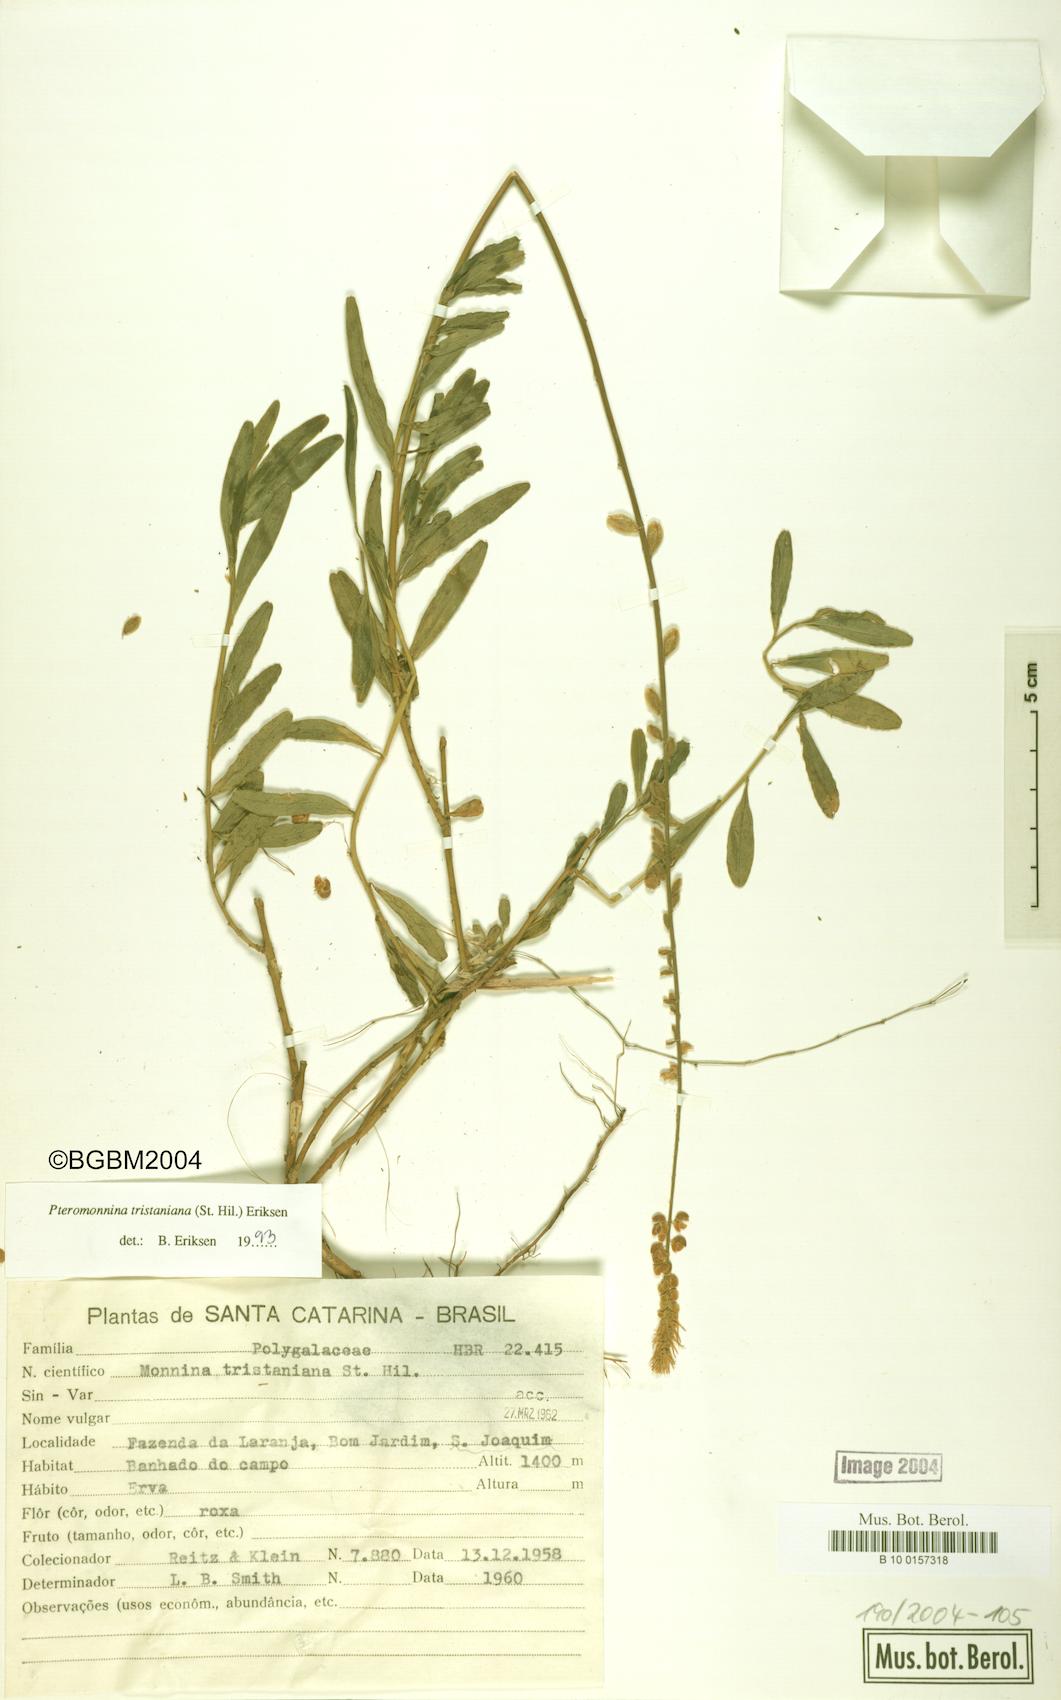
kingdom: Plantae
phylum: Tracheophyta
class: Magnoliopsida
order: Fabales
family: Polygalaceae
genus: Monnina
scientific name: Monnina tristaniana
